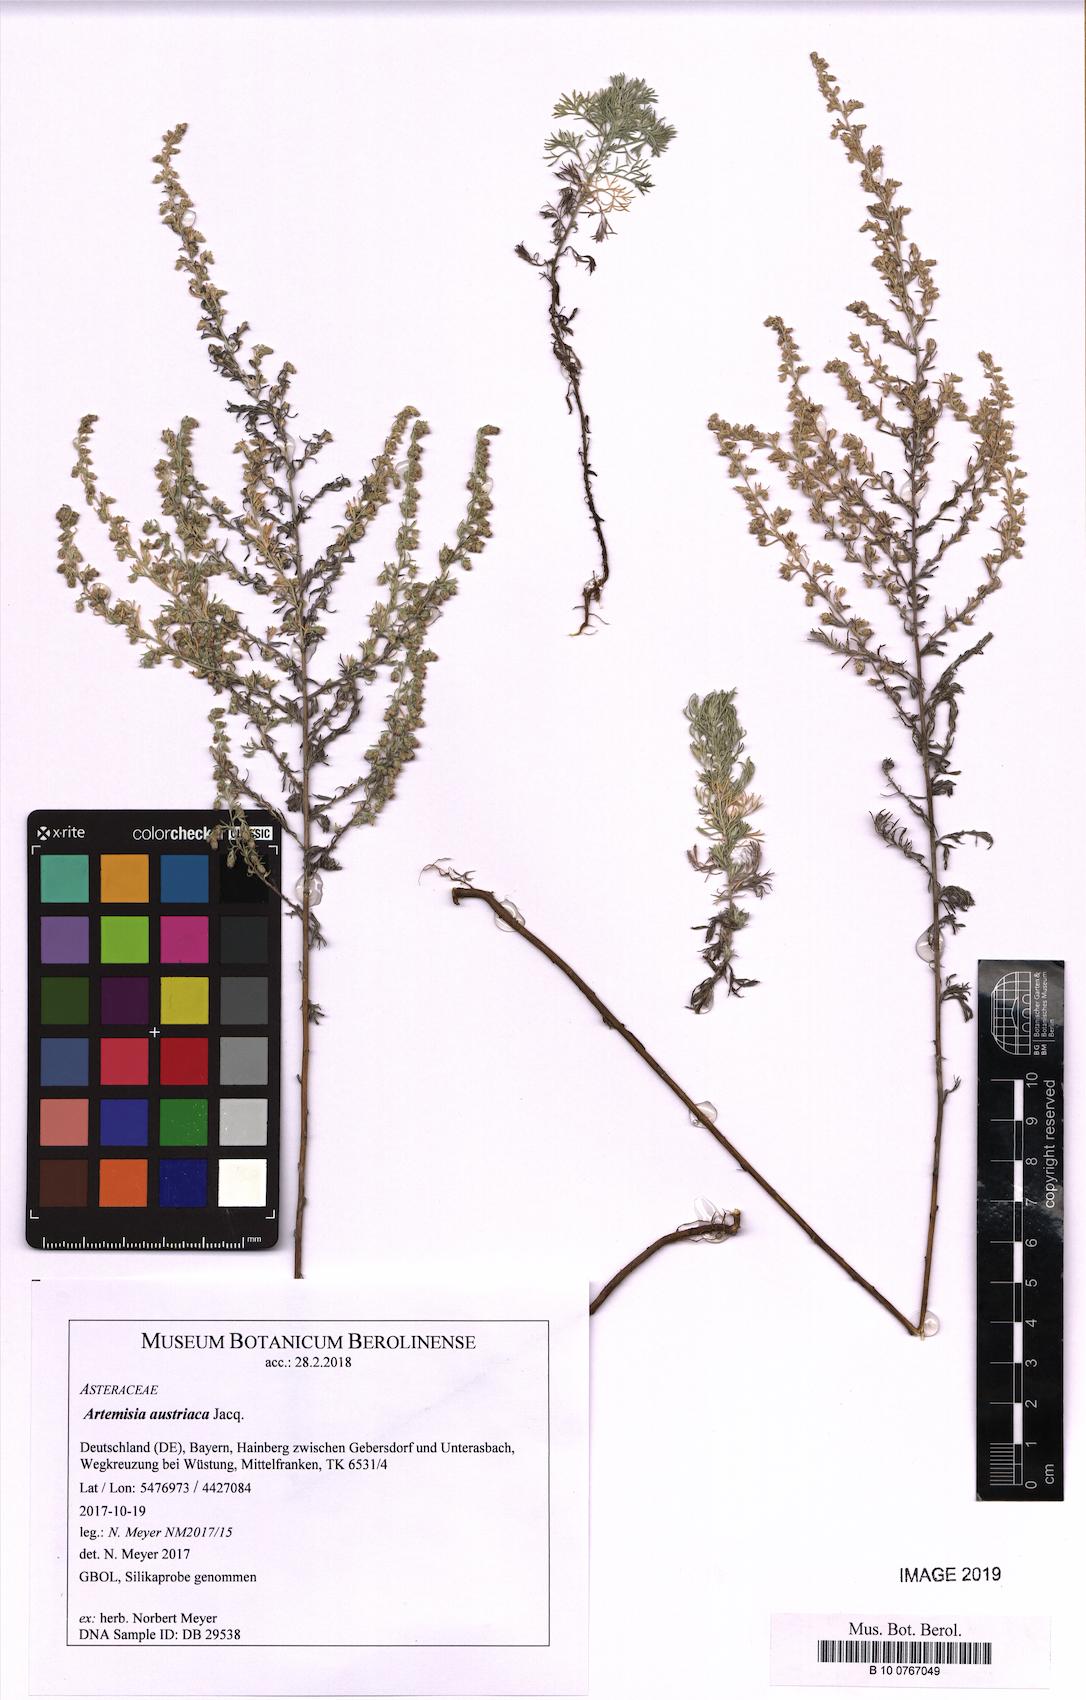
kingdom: Plantae
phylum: Tracheophyta
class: Magnoliopsida
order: Asterales
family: Asteraceae
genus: Artemisia
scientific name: Artemisia repens
